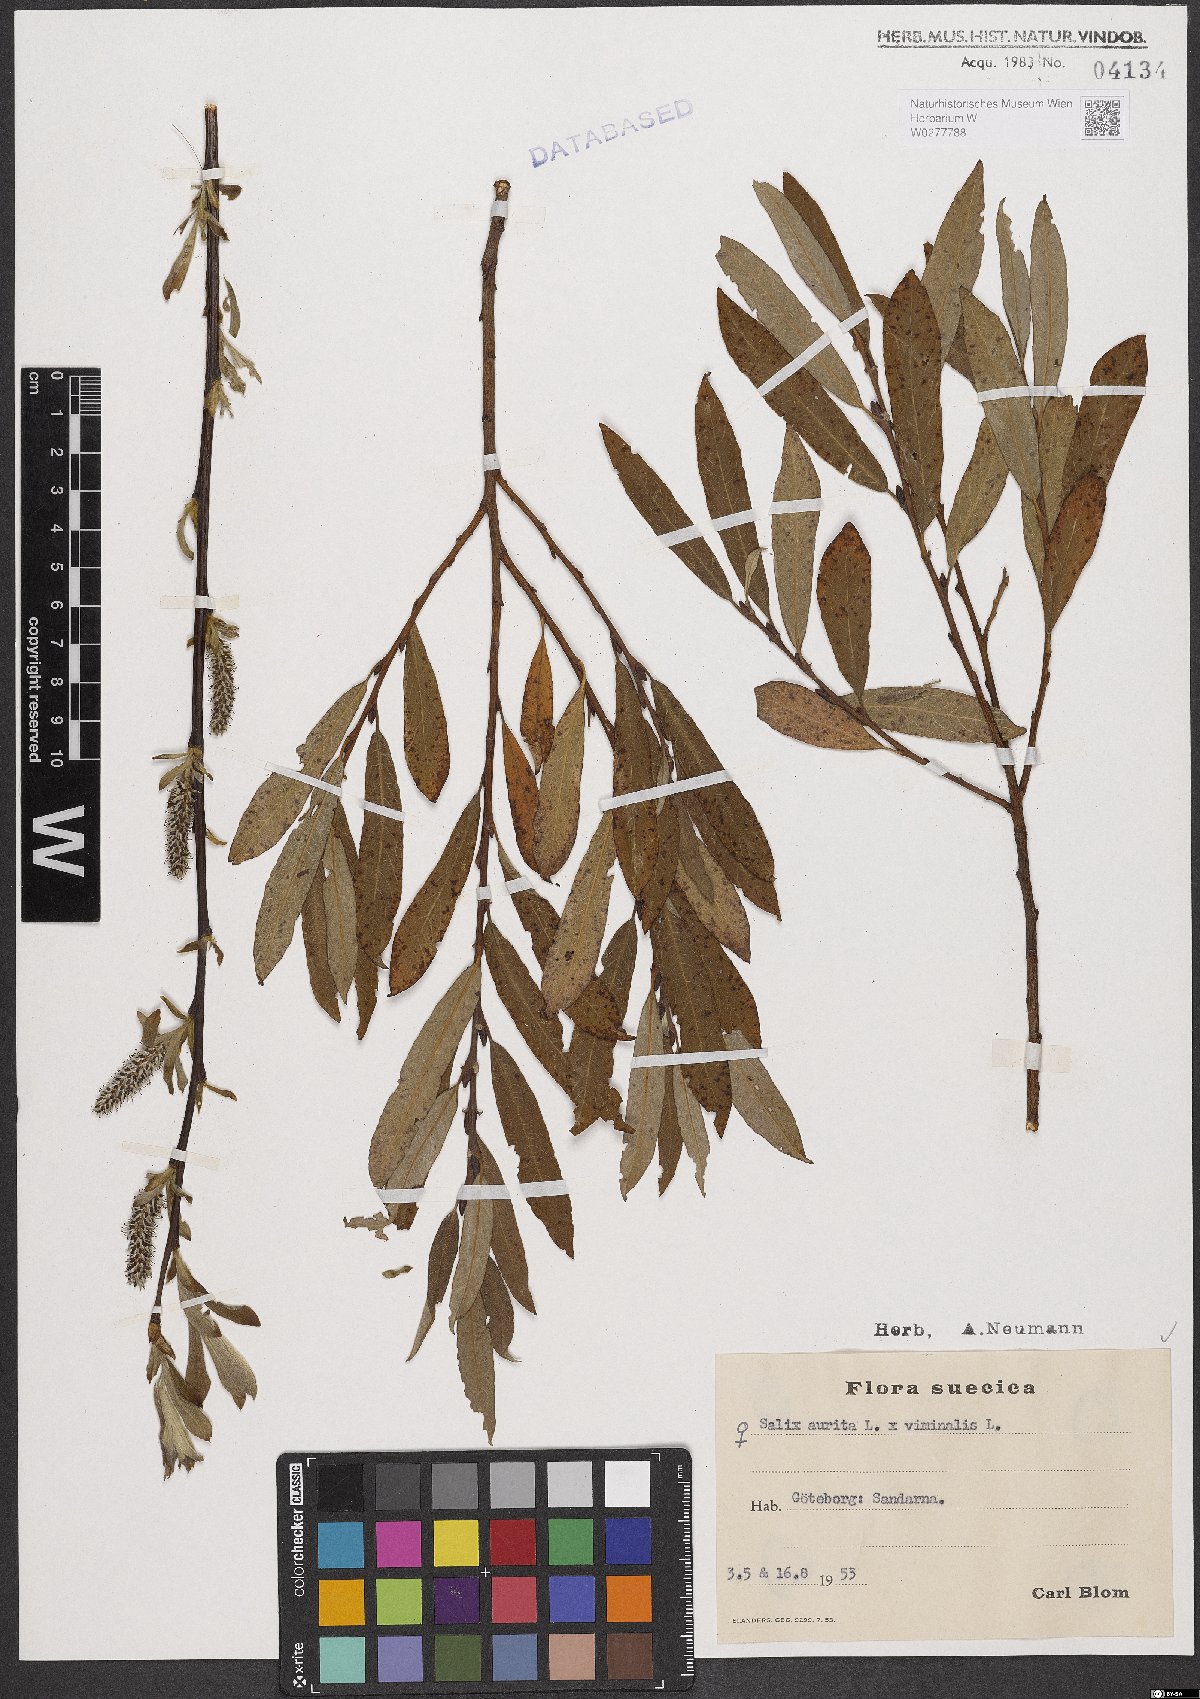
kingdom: Plantae
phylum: Tracheophyta
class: Magnoliopsida
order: Malpighiales
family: Salicaceae
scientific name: Salicaceae
